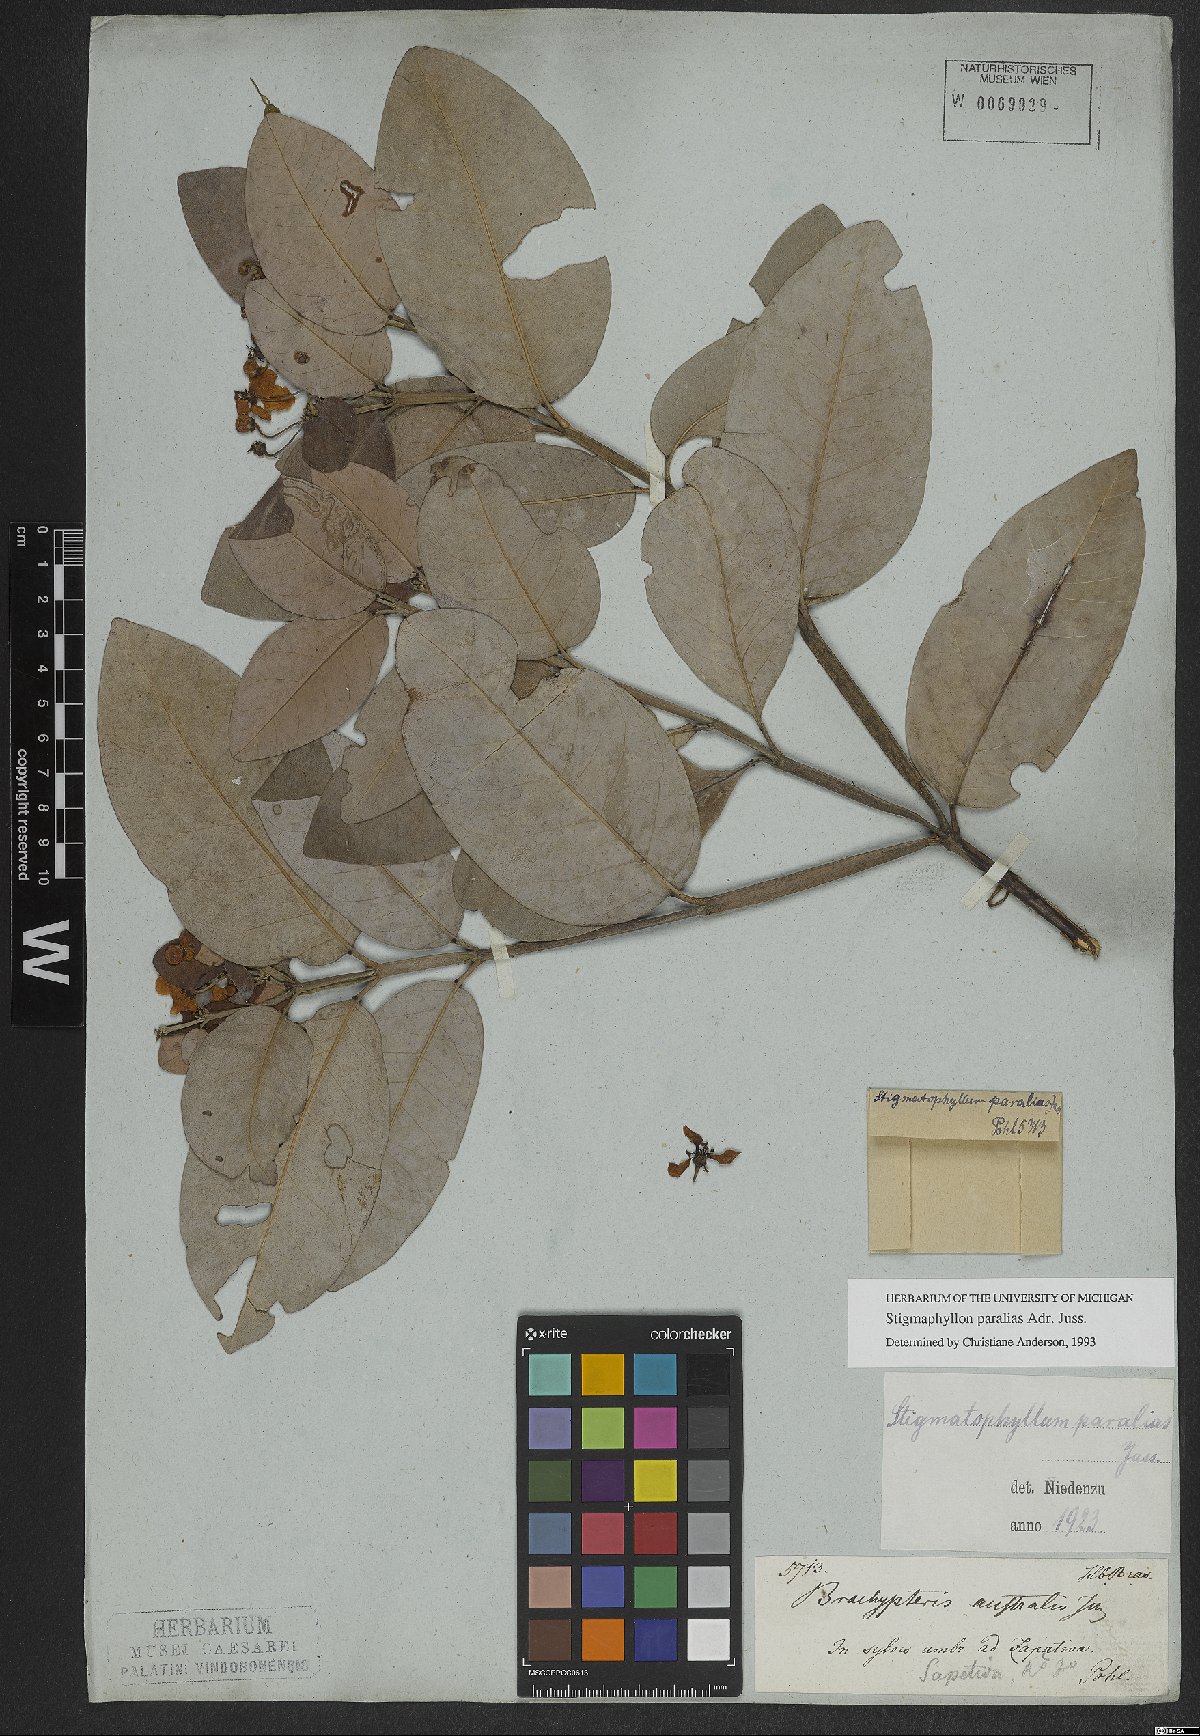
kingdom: Plantae
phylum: Tracheophyta
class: Magnoliopsida
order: Malpighiales
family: Malpighiaceae
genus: Stigmaphyllon
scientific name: Stigmaphyllon paralias
